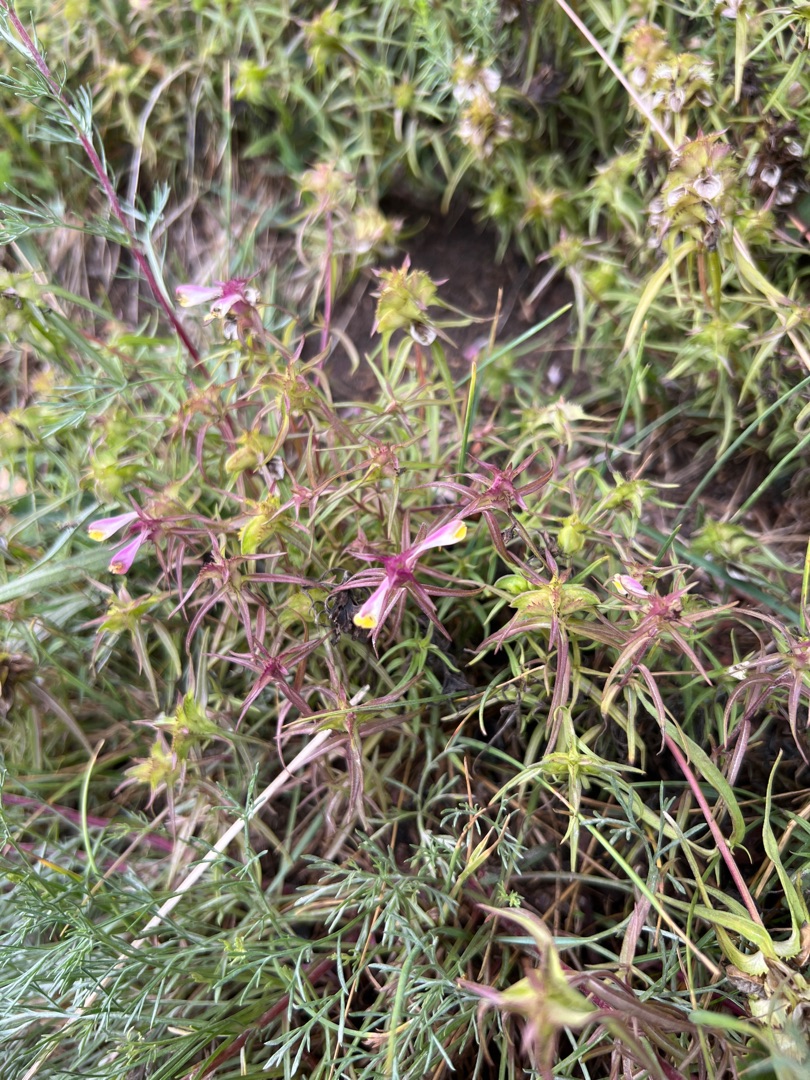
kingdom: Plantae
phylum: Tracheophyta
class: Magnoliopsida
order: Lamiales
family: Orobanchaceae
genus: Melampyrum
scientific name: Melampyrum cristatum
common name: Kantet kohvede
